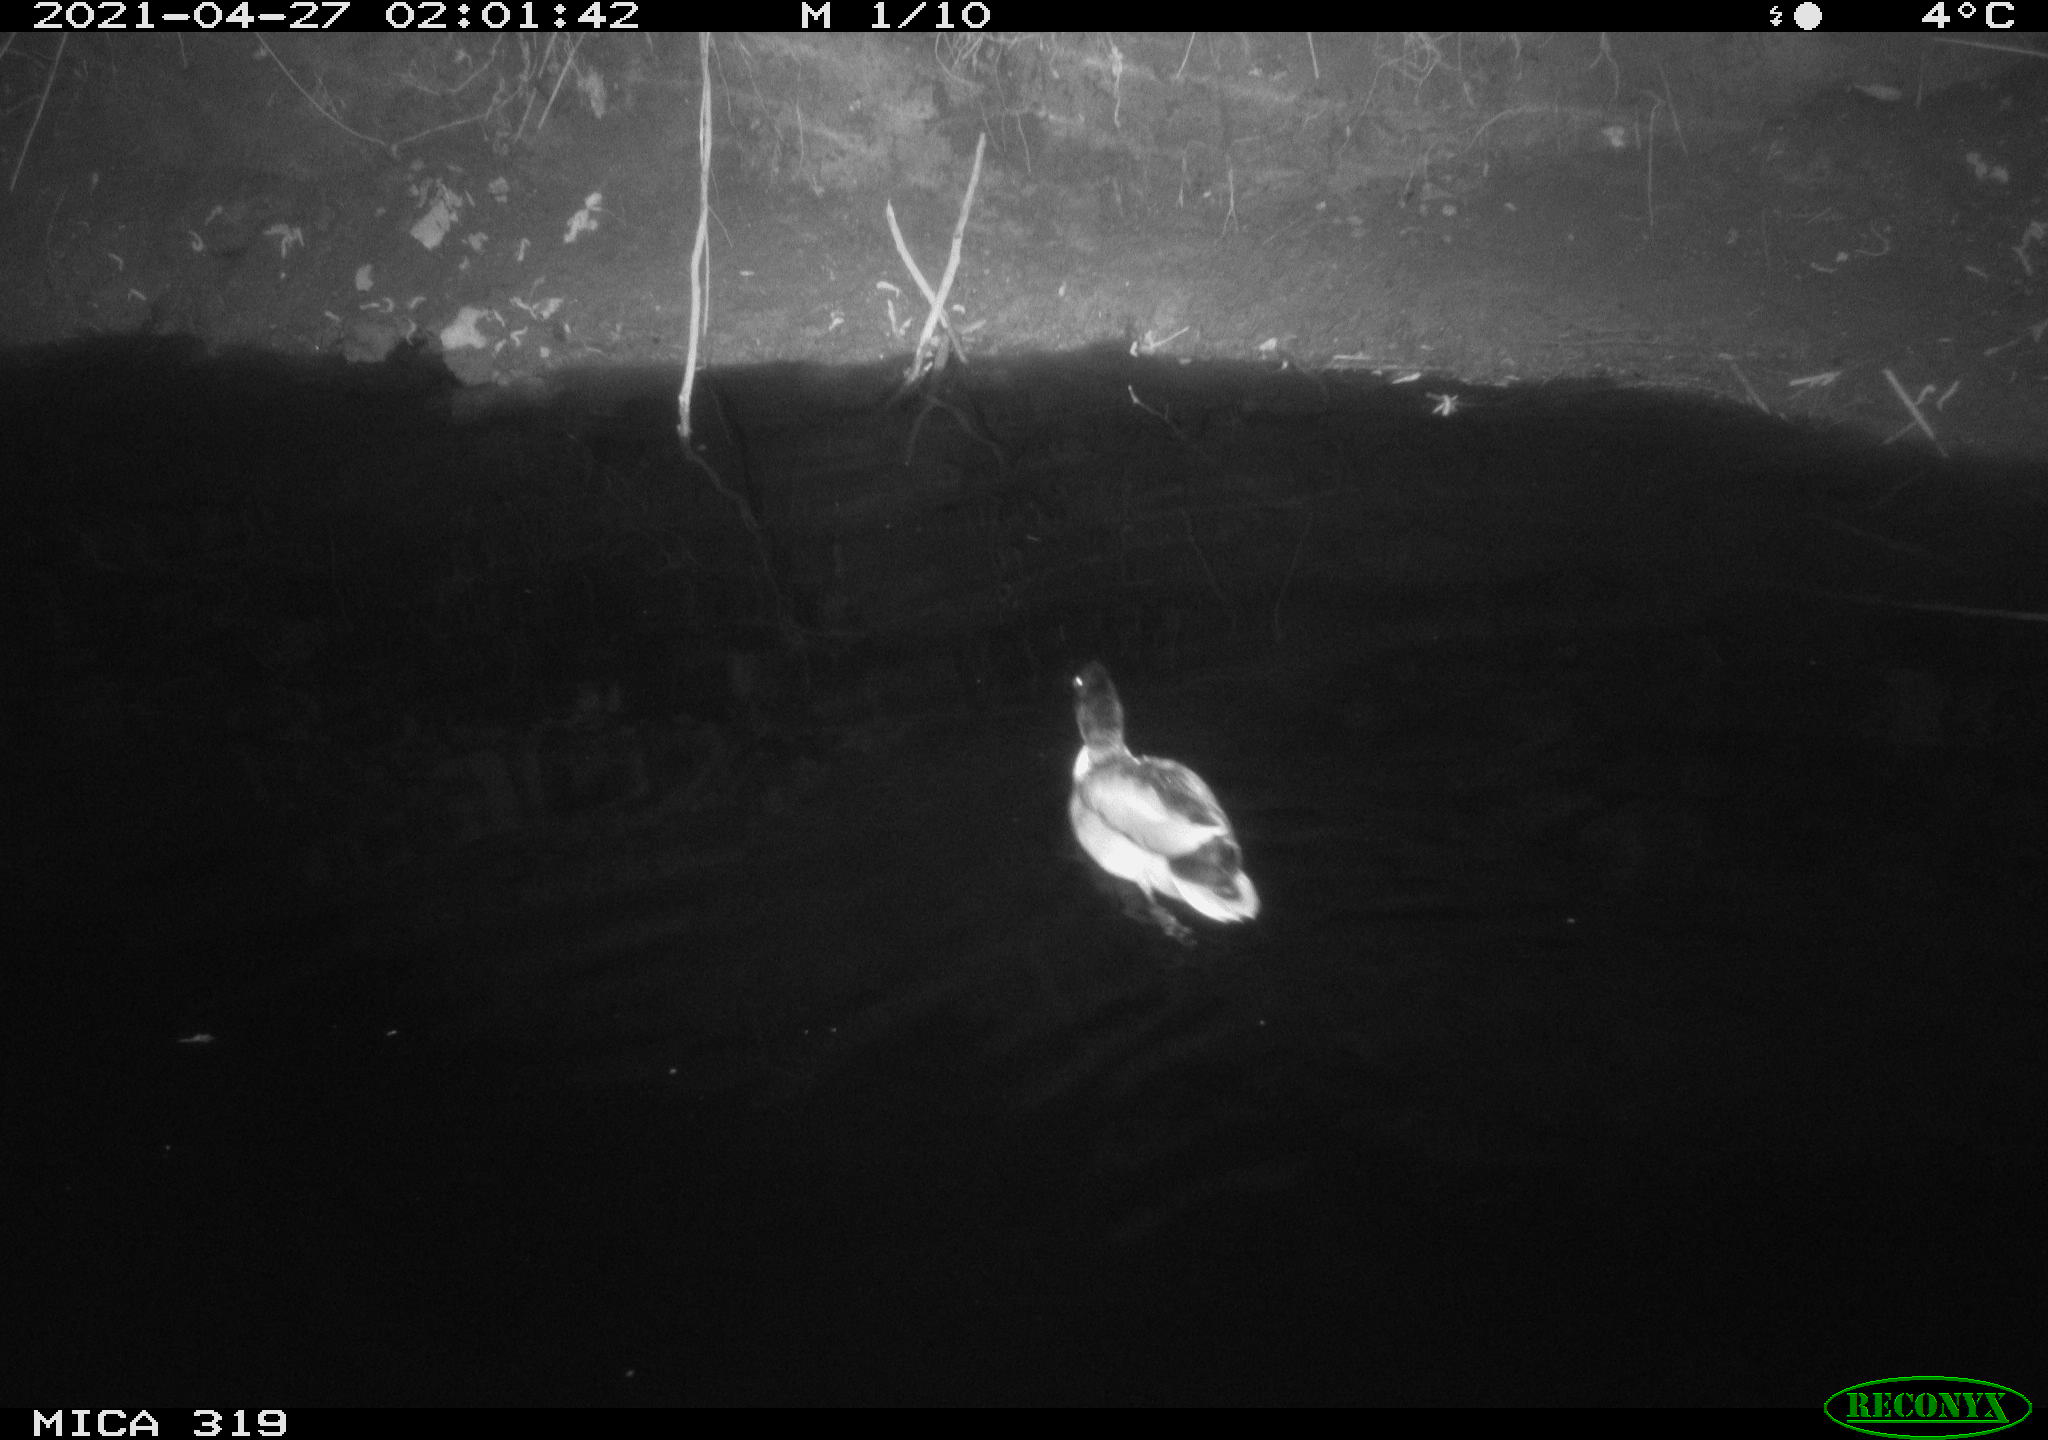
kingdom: Animalia
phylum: Chordata
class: Aves
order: Anseriformes
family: Anatidae
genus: Anas
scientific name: Anas platyrhynchos
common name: Mallard
